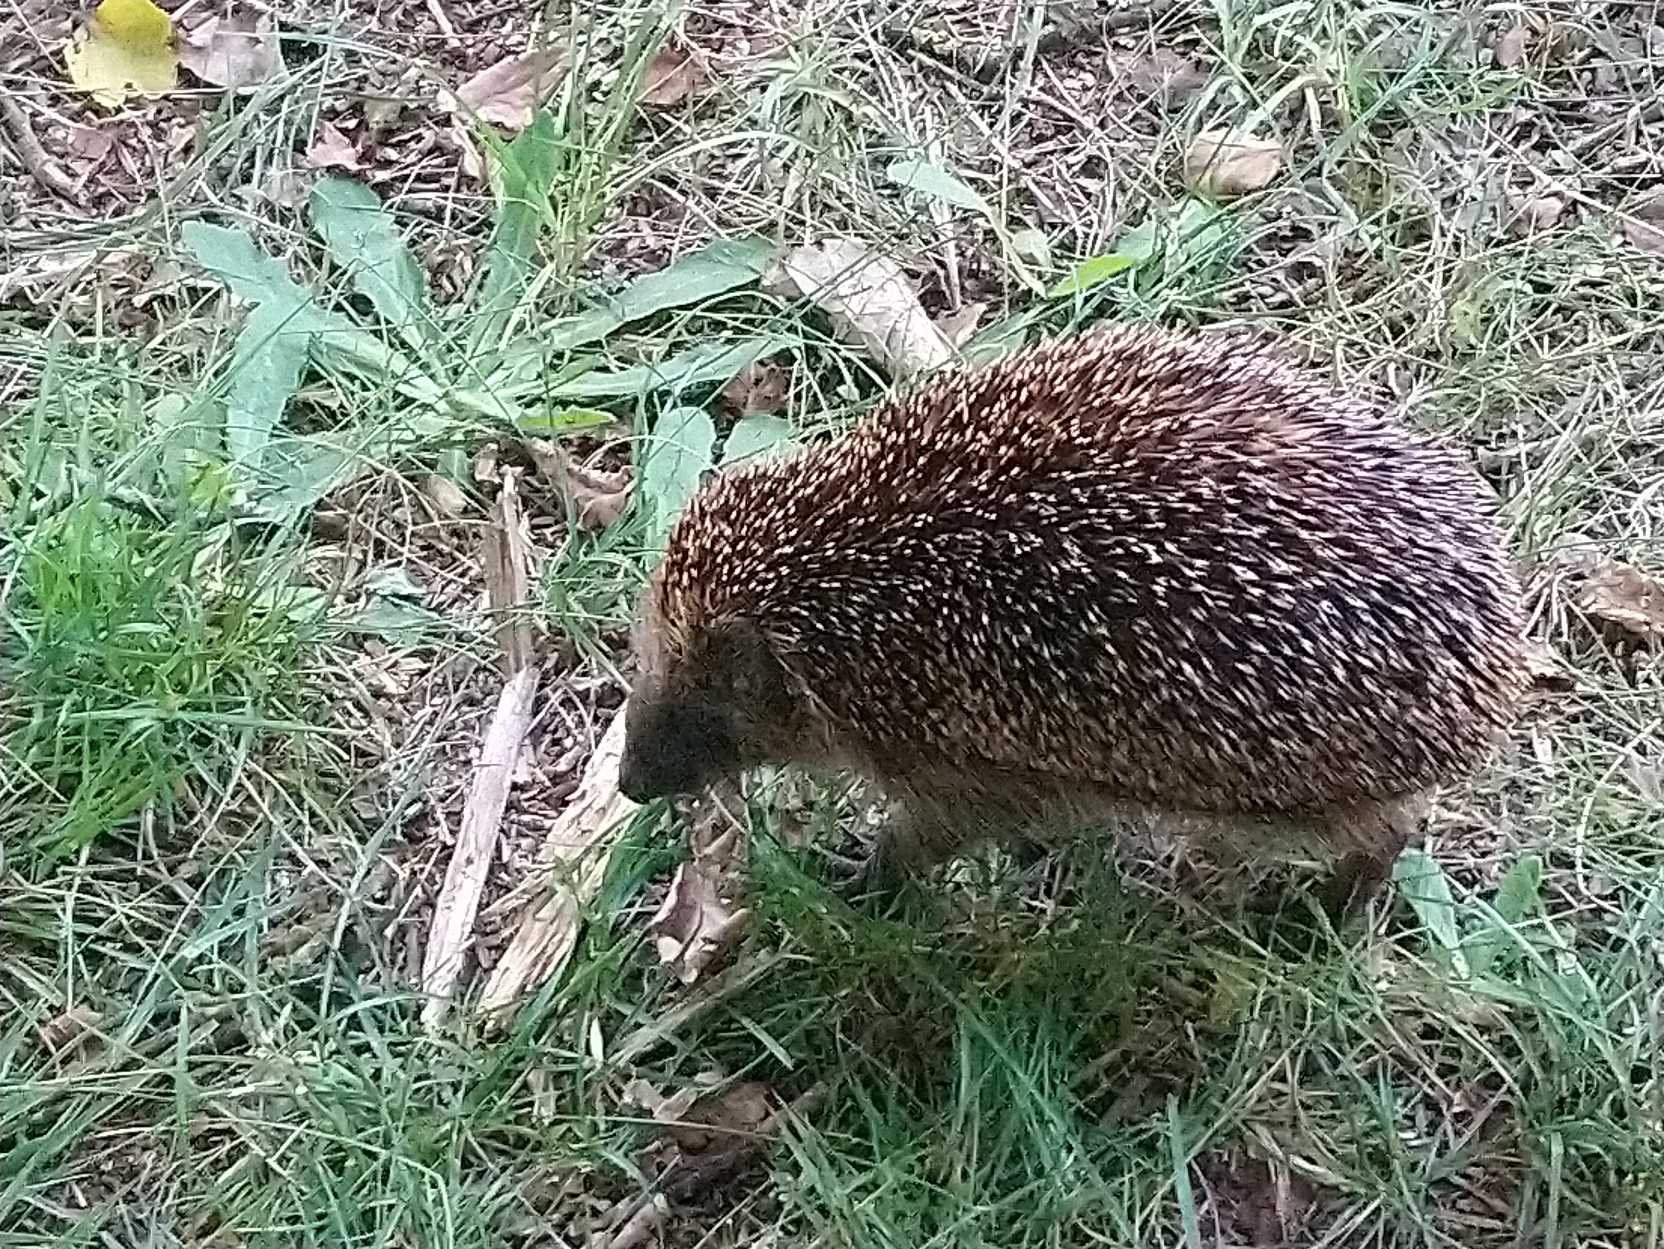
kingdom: Animalia
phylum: Chordata
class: Mammalia
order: Erinaceomorpha
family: Erinaceidae
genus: Erinaceus
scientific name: Erinaceus europaeus
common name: Pindsvin
